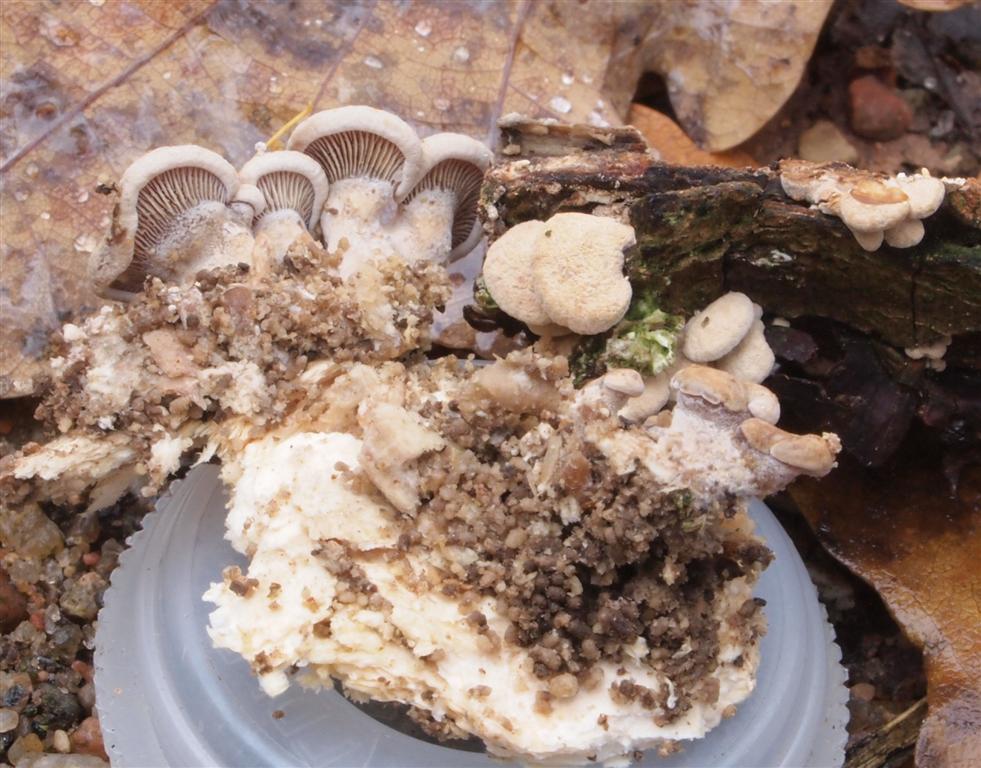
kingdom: Fungi
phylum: Basidiomycota
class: Agaricomycetes
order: Agaricales
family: Mycenaceae
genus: Panellus
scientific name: Panellus stipticus
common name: kliddet epaulethat
